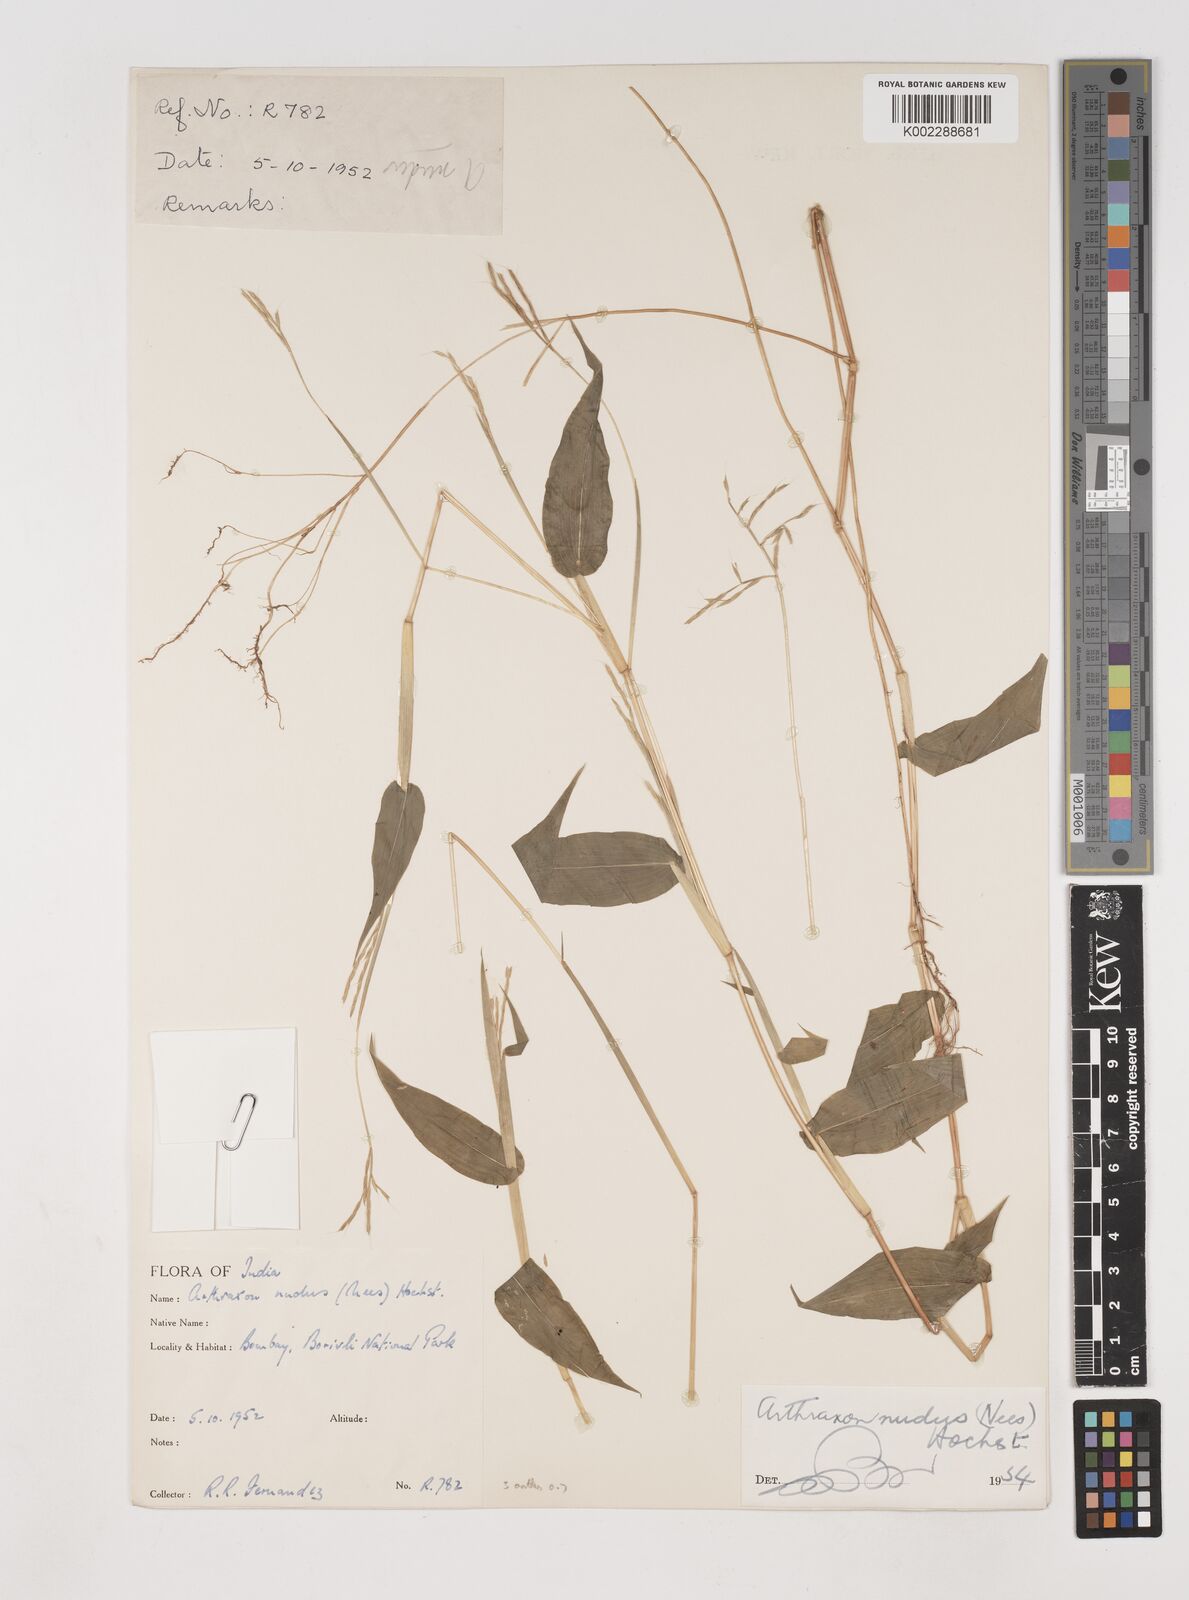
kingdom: Plantae
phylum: Tracheophyta
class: Liliopsida
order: Poales
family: Poaceae
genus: Arthraxon
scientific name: Arthraxon nudus
